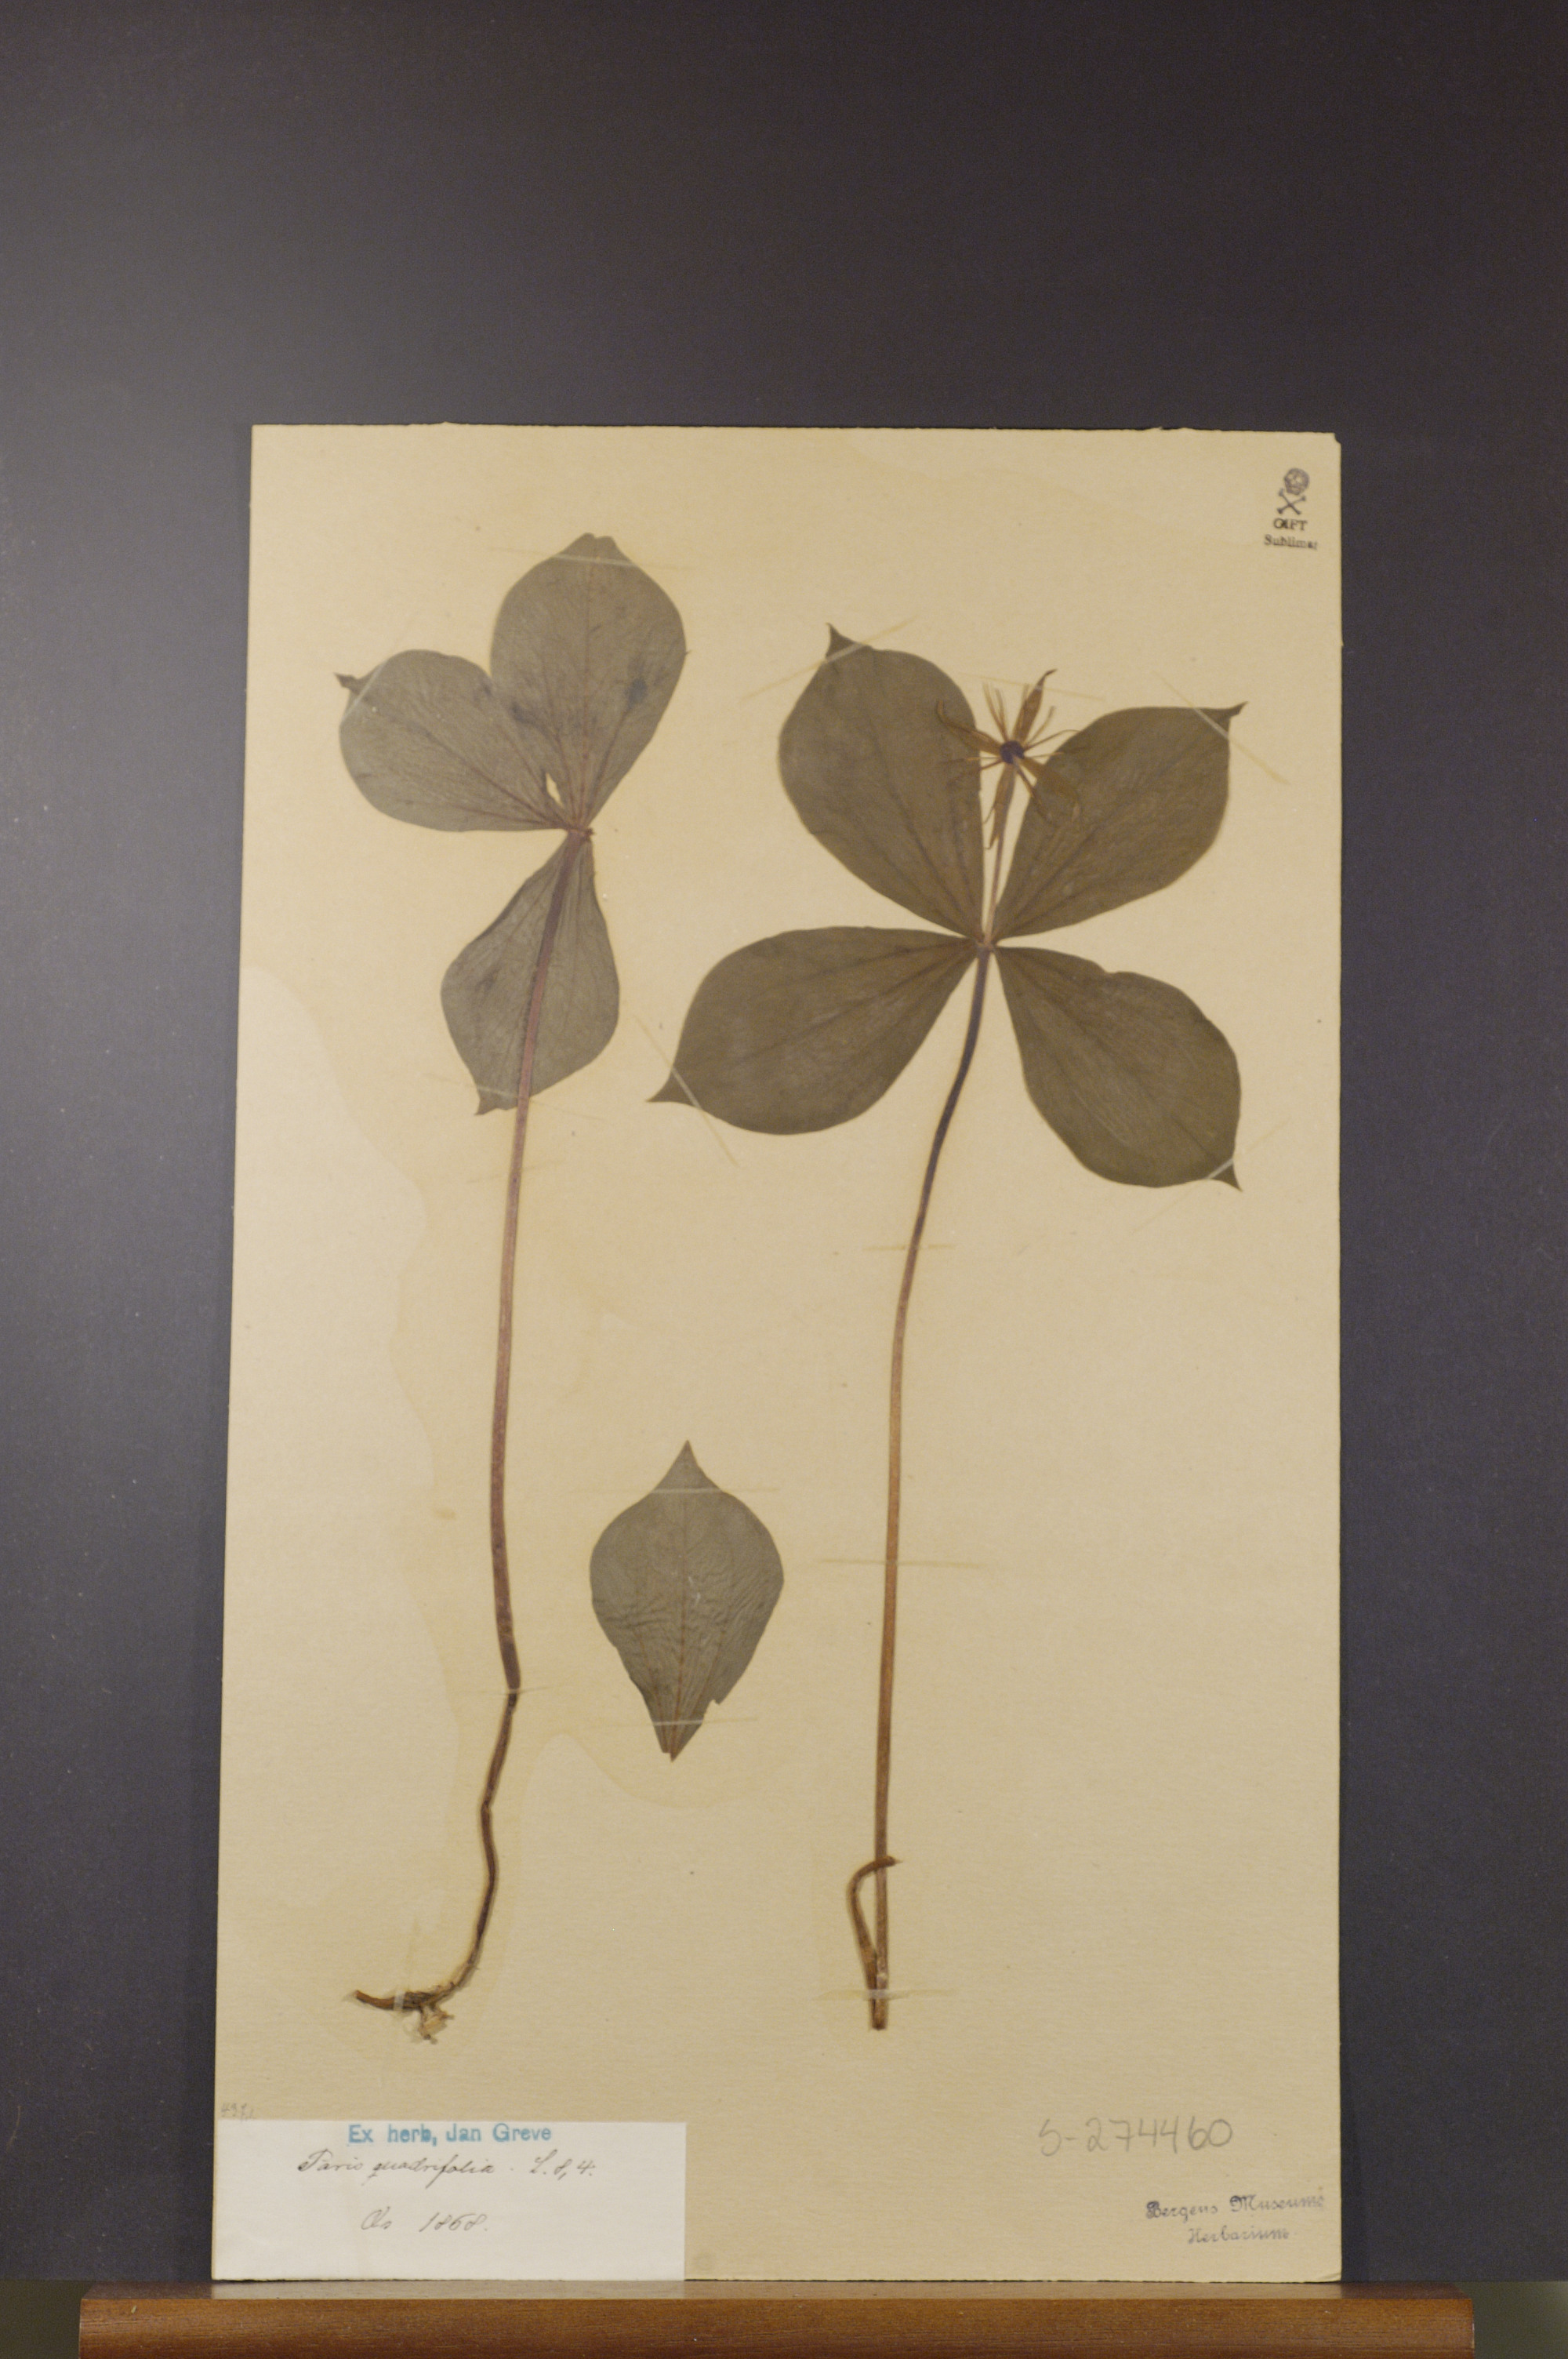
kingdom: Plantae
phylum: Tracheophyta
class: Liliopsida
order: Liliales
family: Melanthiaceae
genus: Paris
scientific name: Paris quadrifolia
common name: Herb-paris
